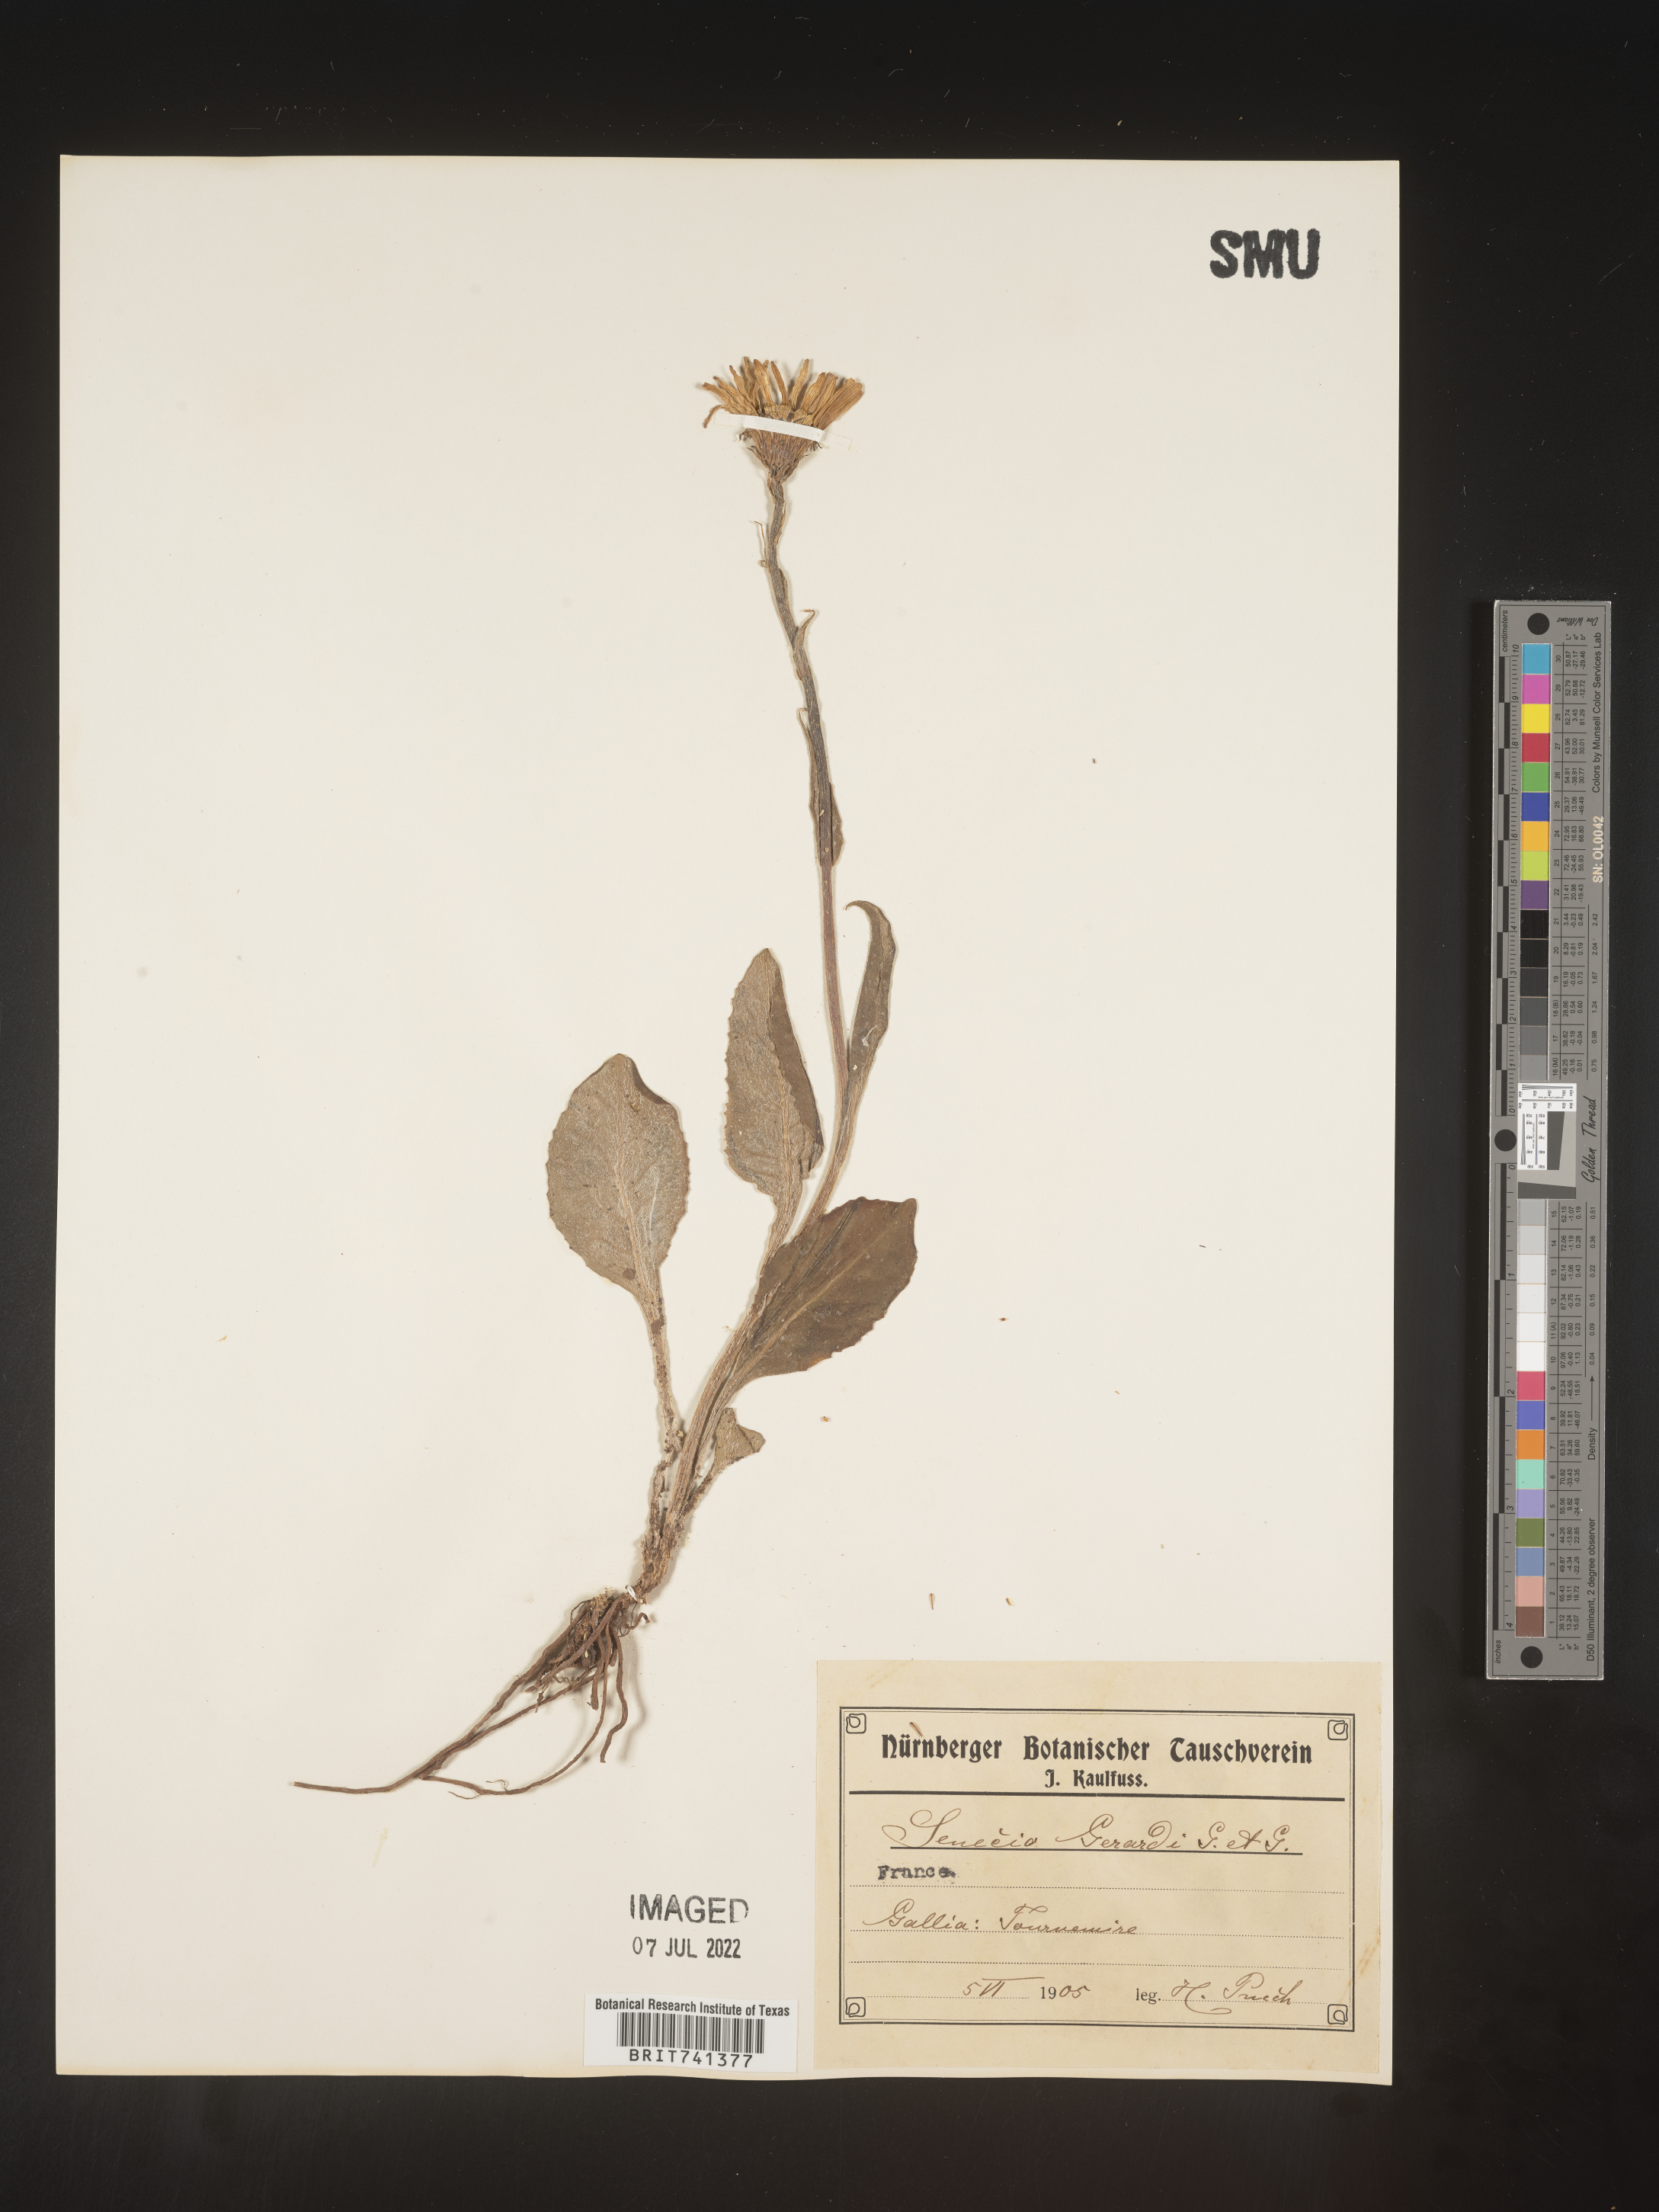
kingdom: Plantae
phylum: Tracheophyta
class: Magnoliopsida
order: Asterales
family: Asteraceae
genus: Senecio
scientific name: Senecio
